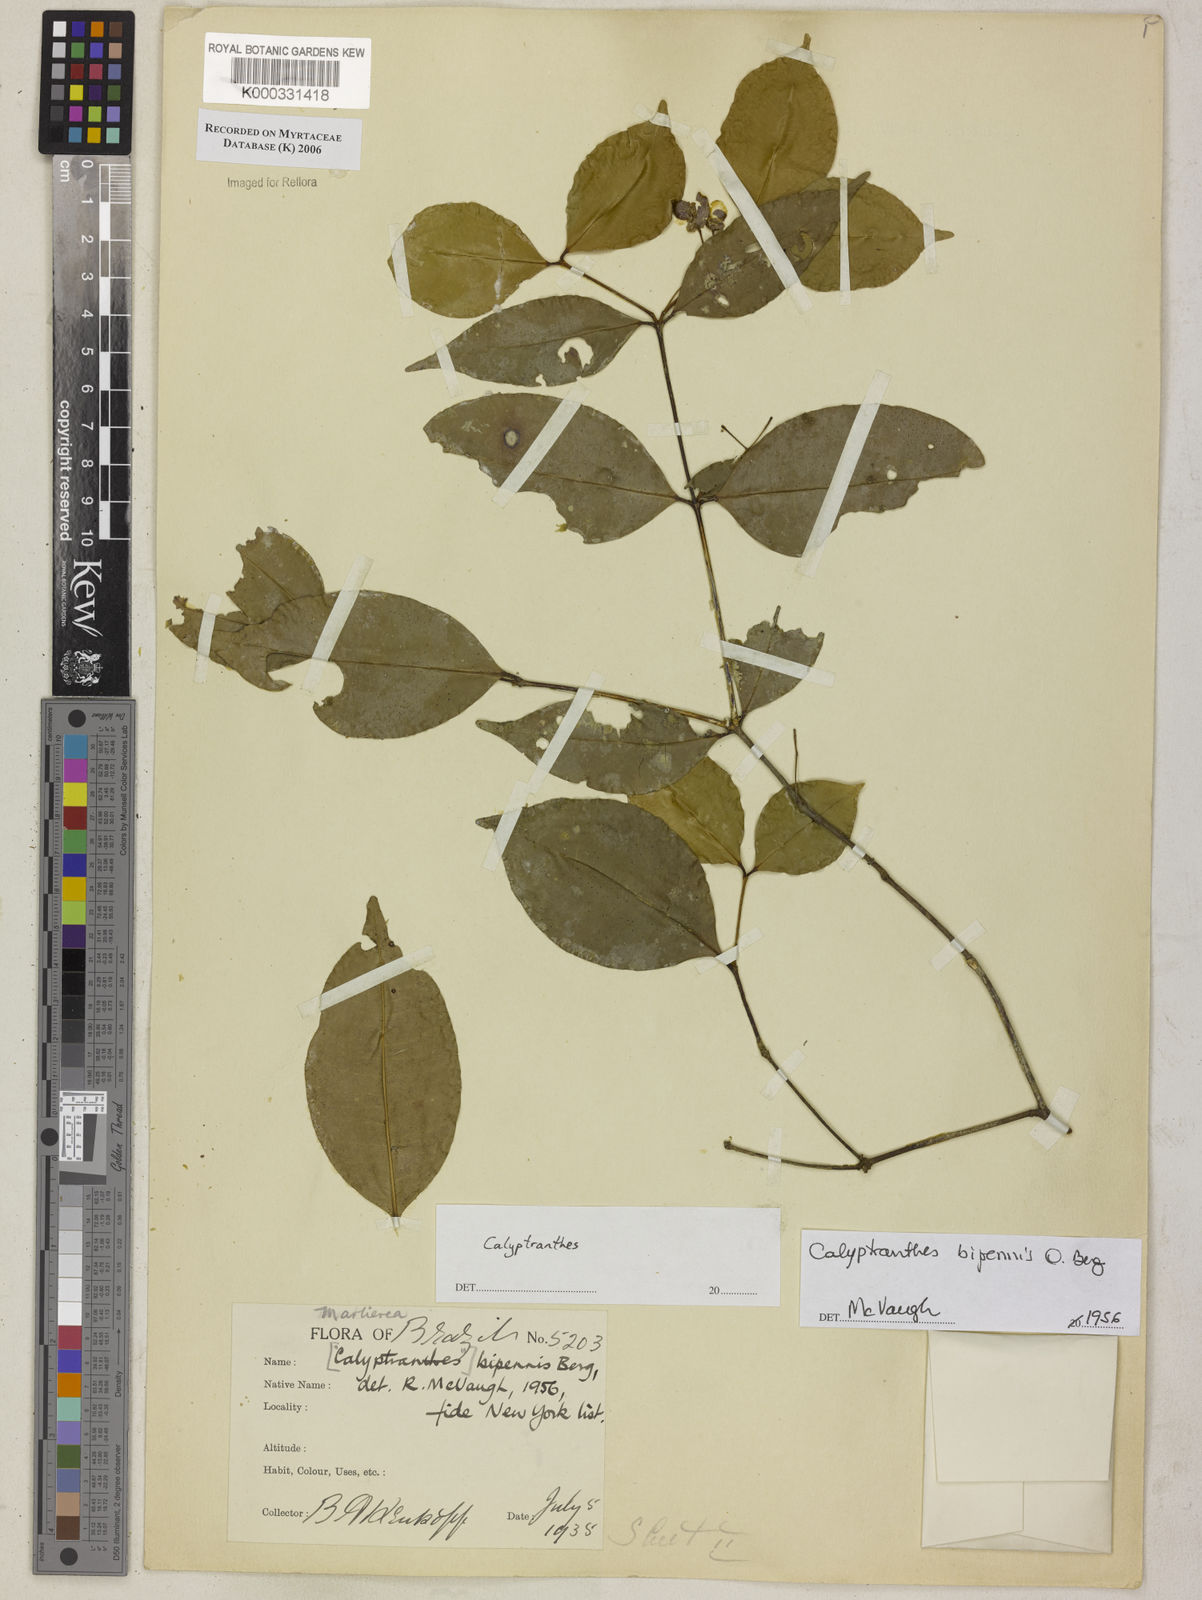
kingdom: Plantae
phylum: Tracheophyta
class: Magnoliopsida
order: Myrtales
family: Myrtaceae
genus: Calyptranthes
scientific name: Calyptranthes
